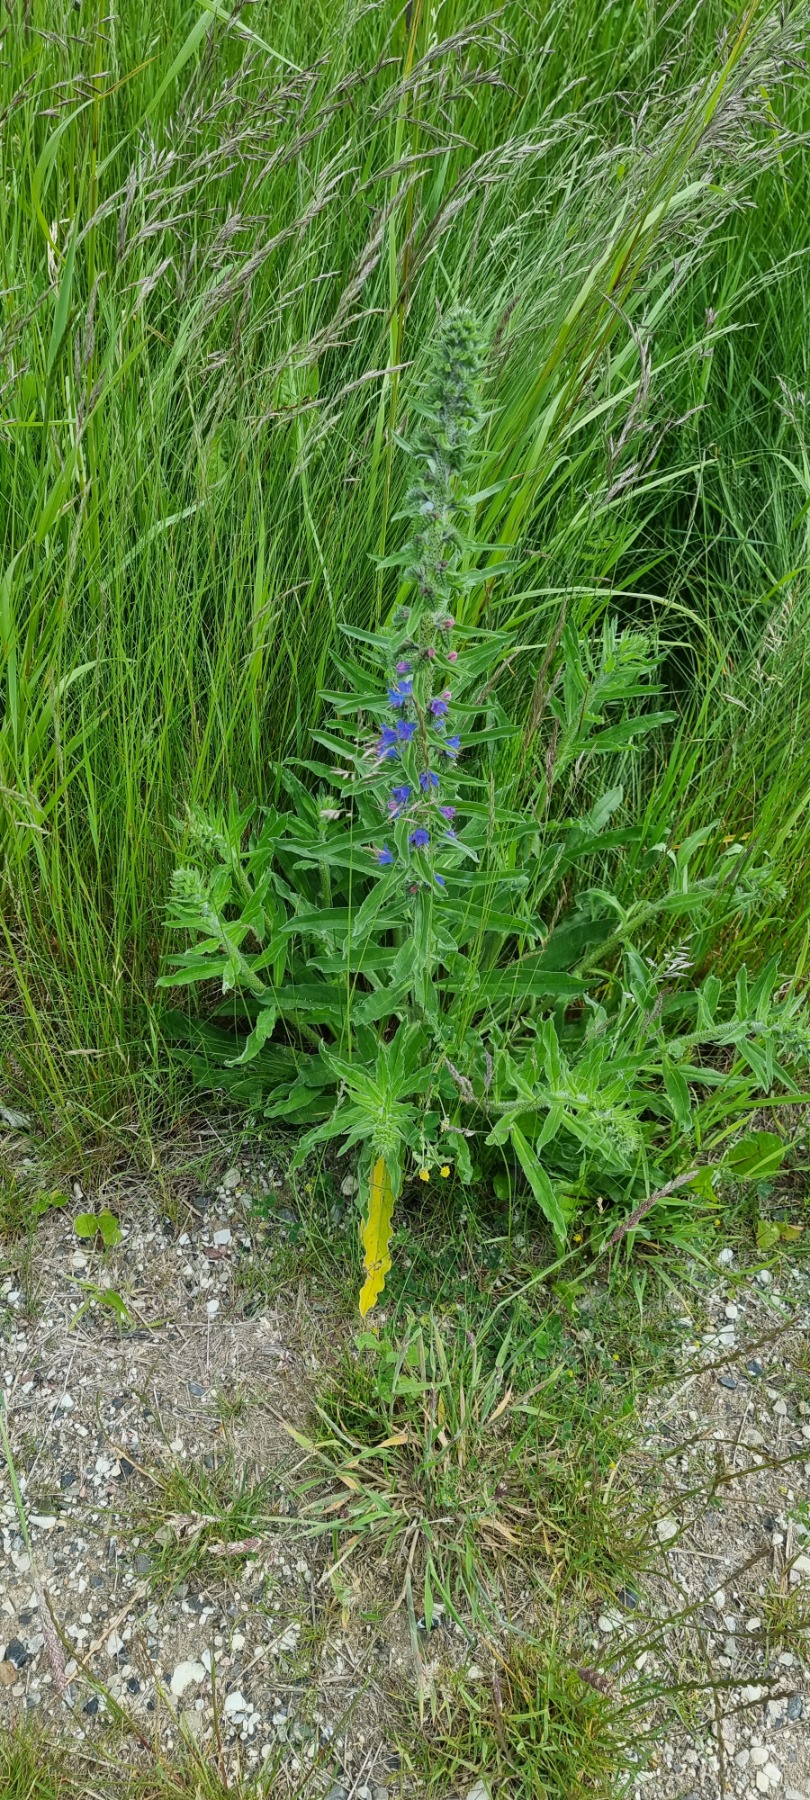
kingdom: Plantae
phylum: Tracheophyta
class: Magnoliopsida
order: Boraginales
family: Boraginaceae
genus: Echium
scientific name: Echium vulgare
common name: Slangehoved
